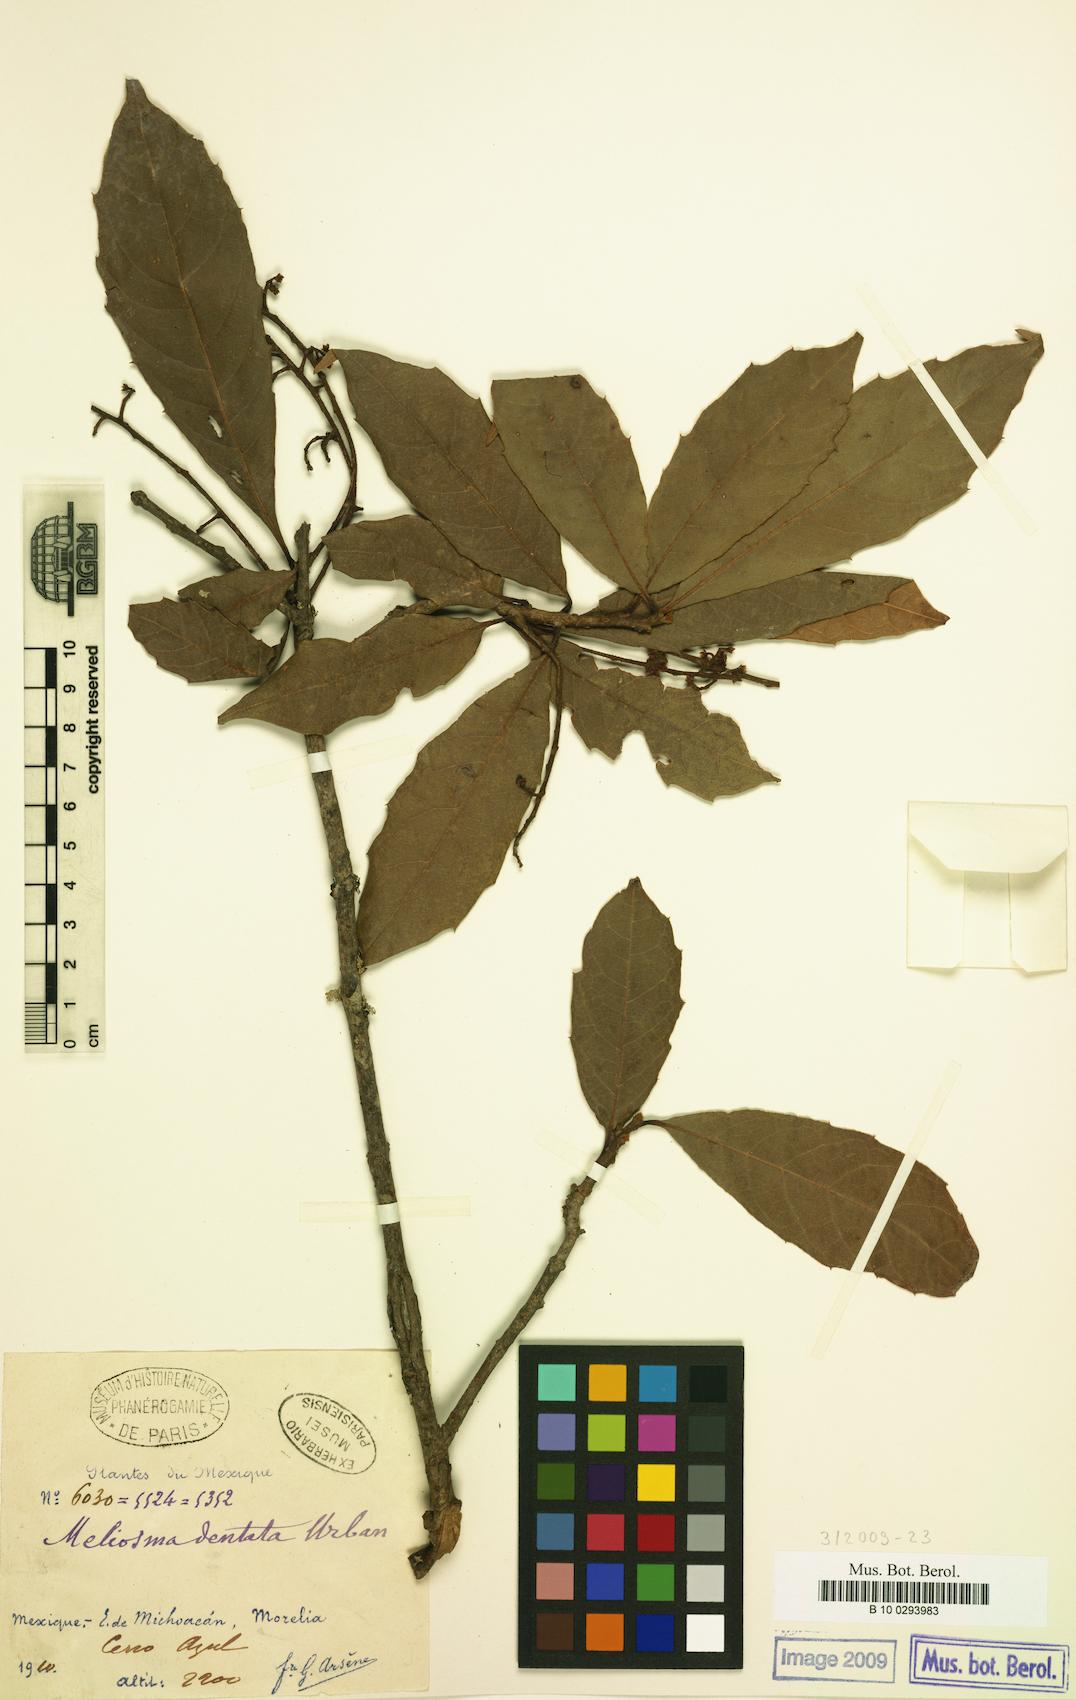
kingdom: Plantae
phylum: Tracheophyta
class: Magnoliopsida
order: Proteales
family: Sabiaceae
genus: Meliosma
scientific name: Meliosma dentata
